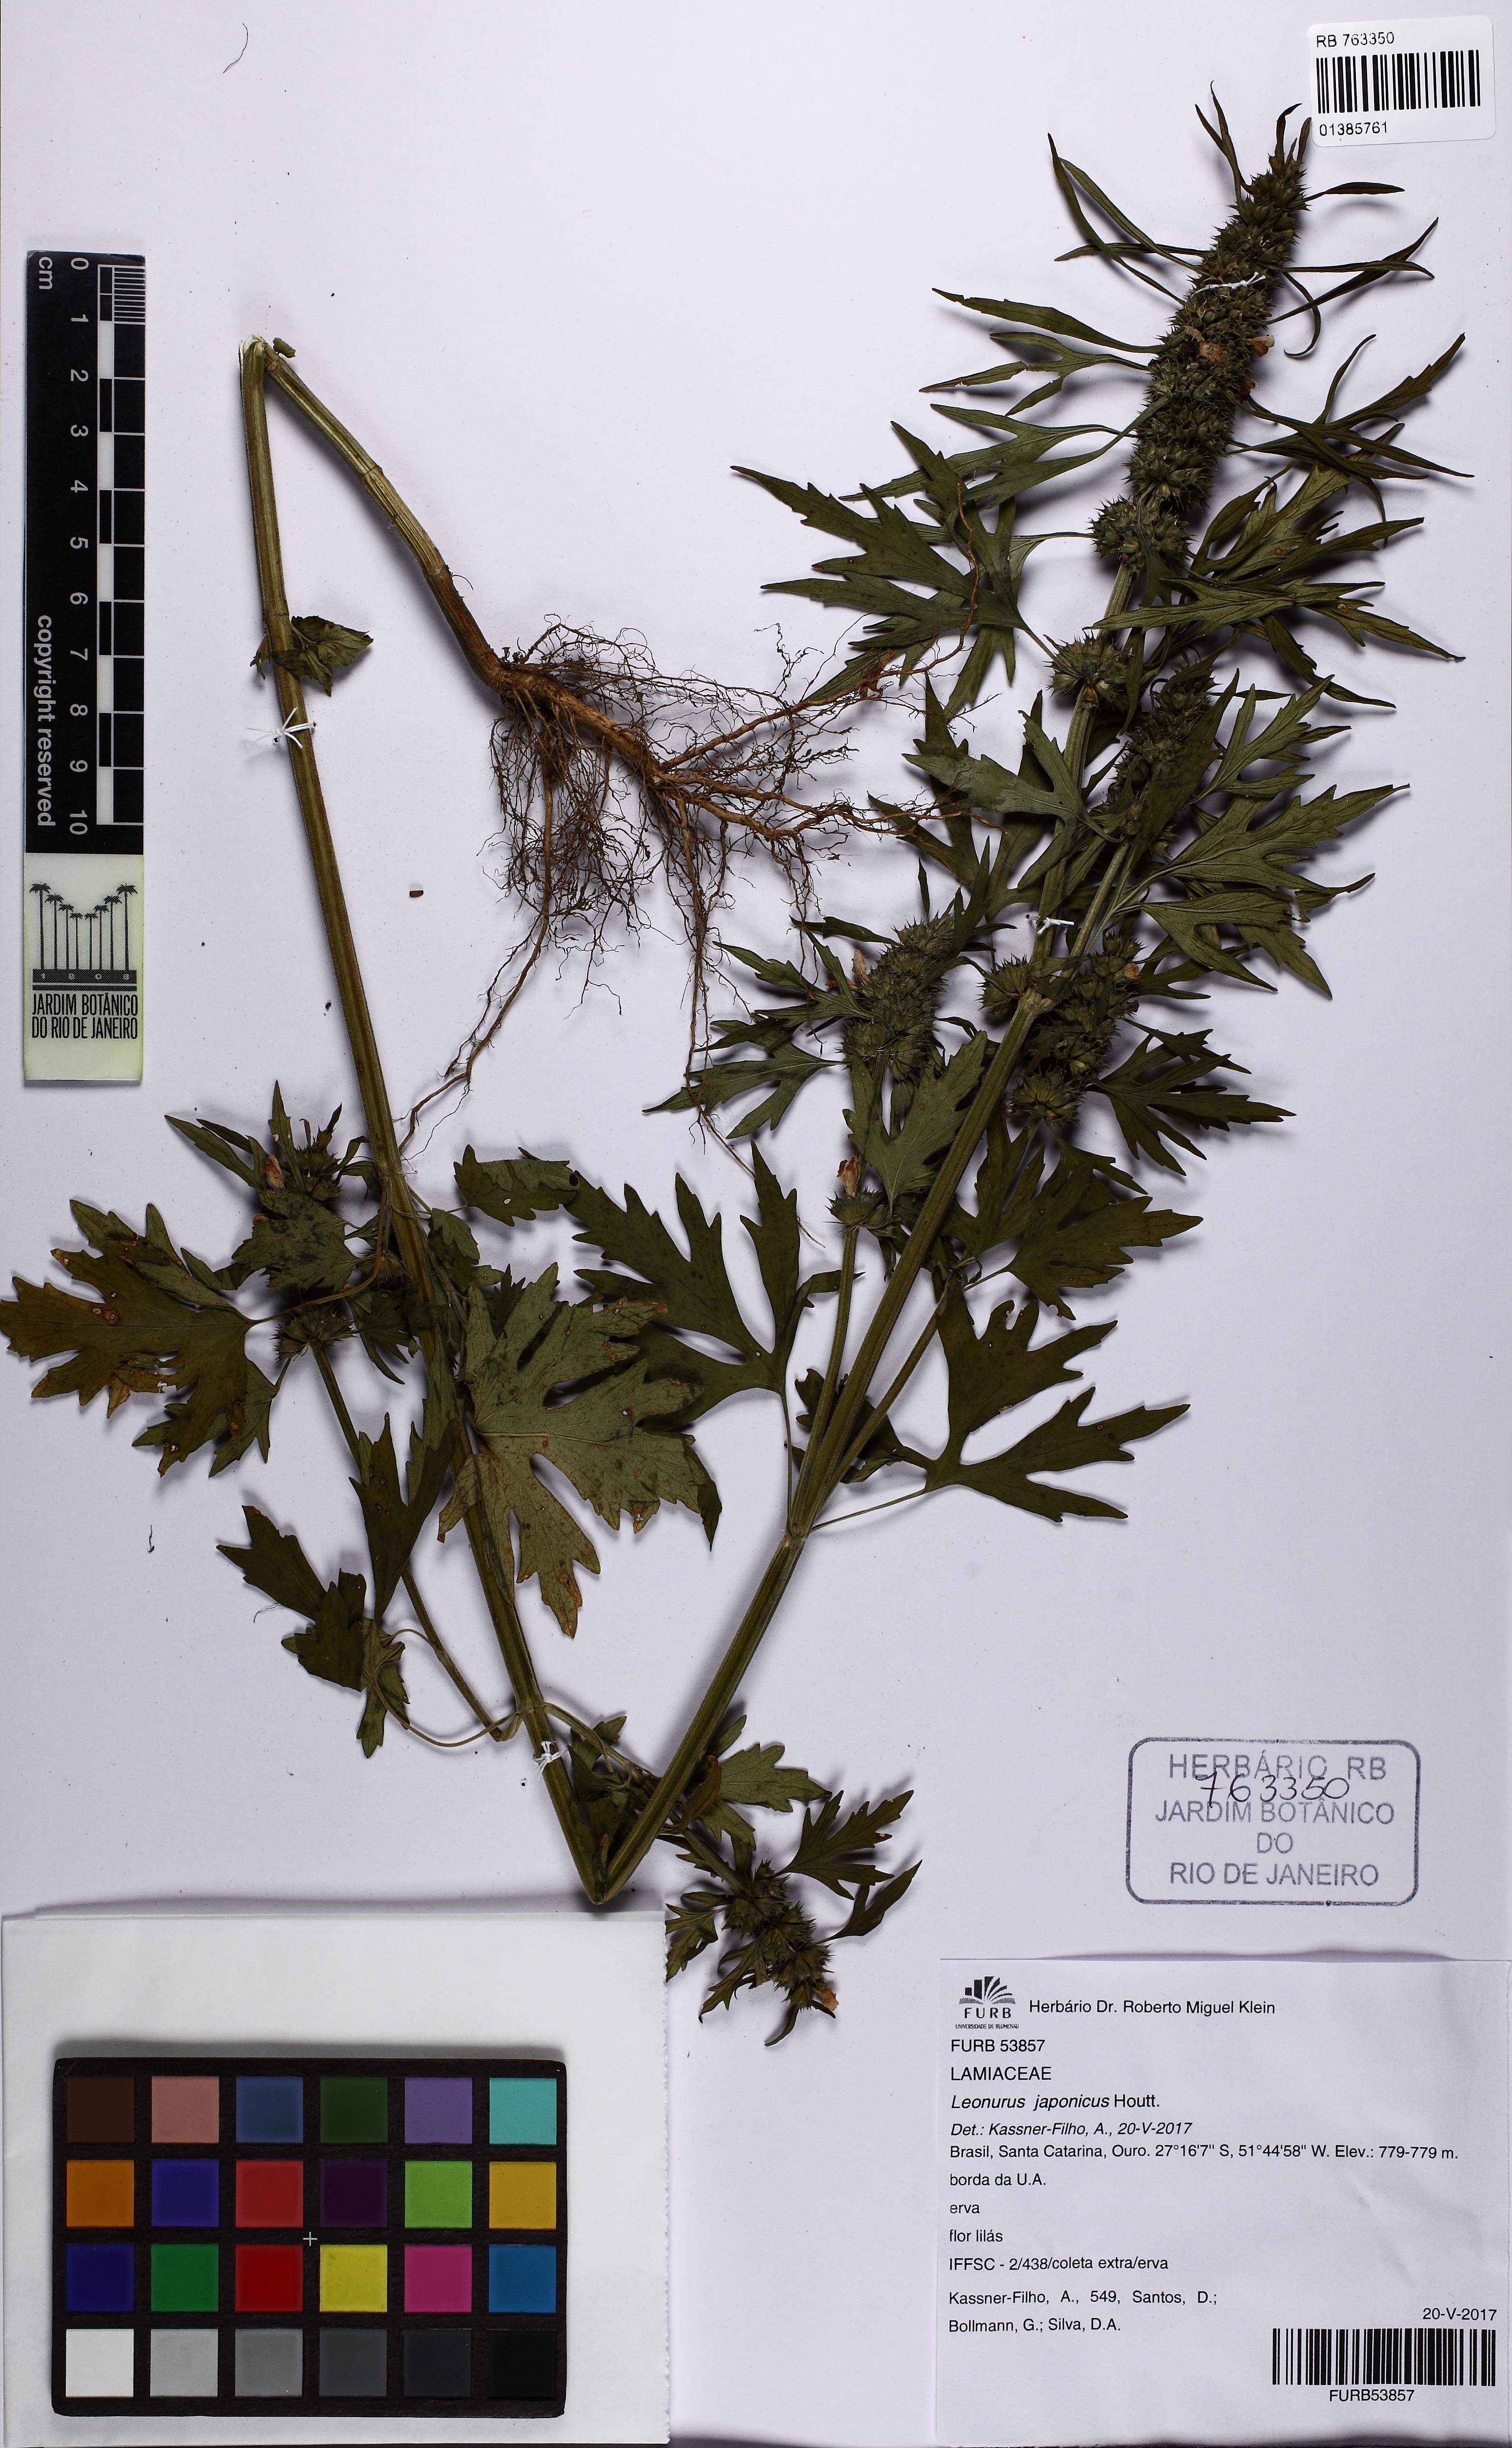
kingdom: Plantae
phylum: Tracheophyta
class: Magnoliopsida
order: Lamiales
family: Lamiaceae
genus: Leonurus
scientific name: Leonurus japonicus
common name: Honeyweed
